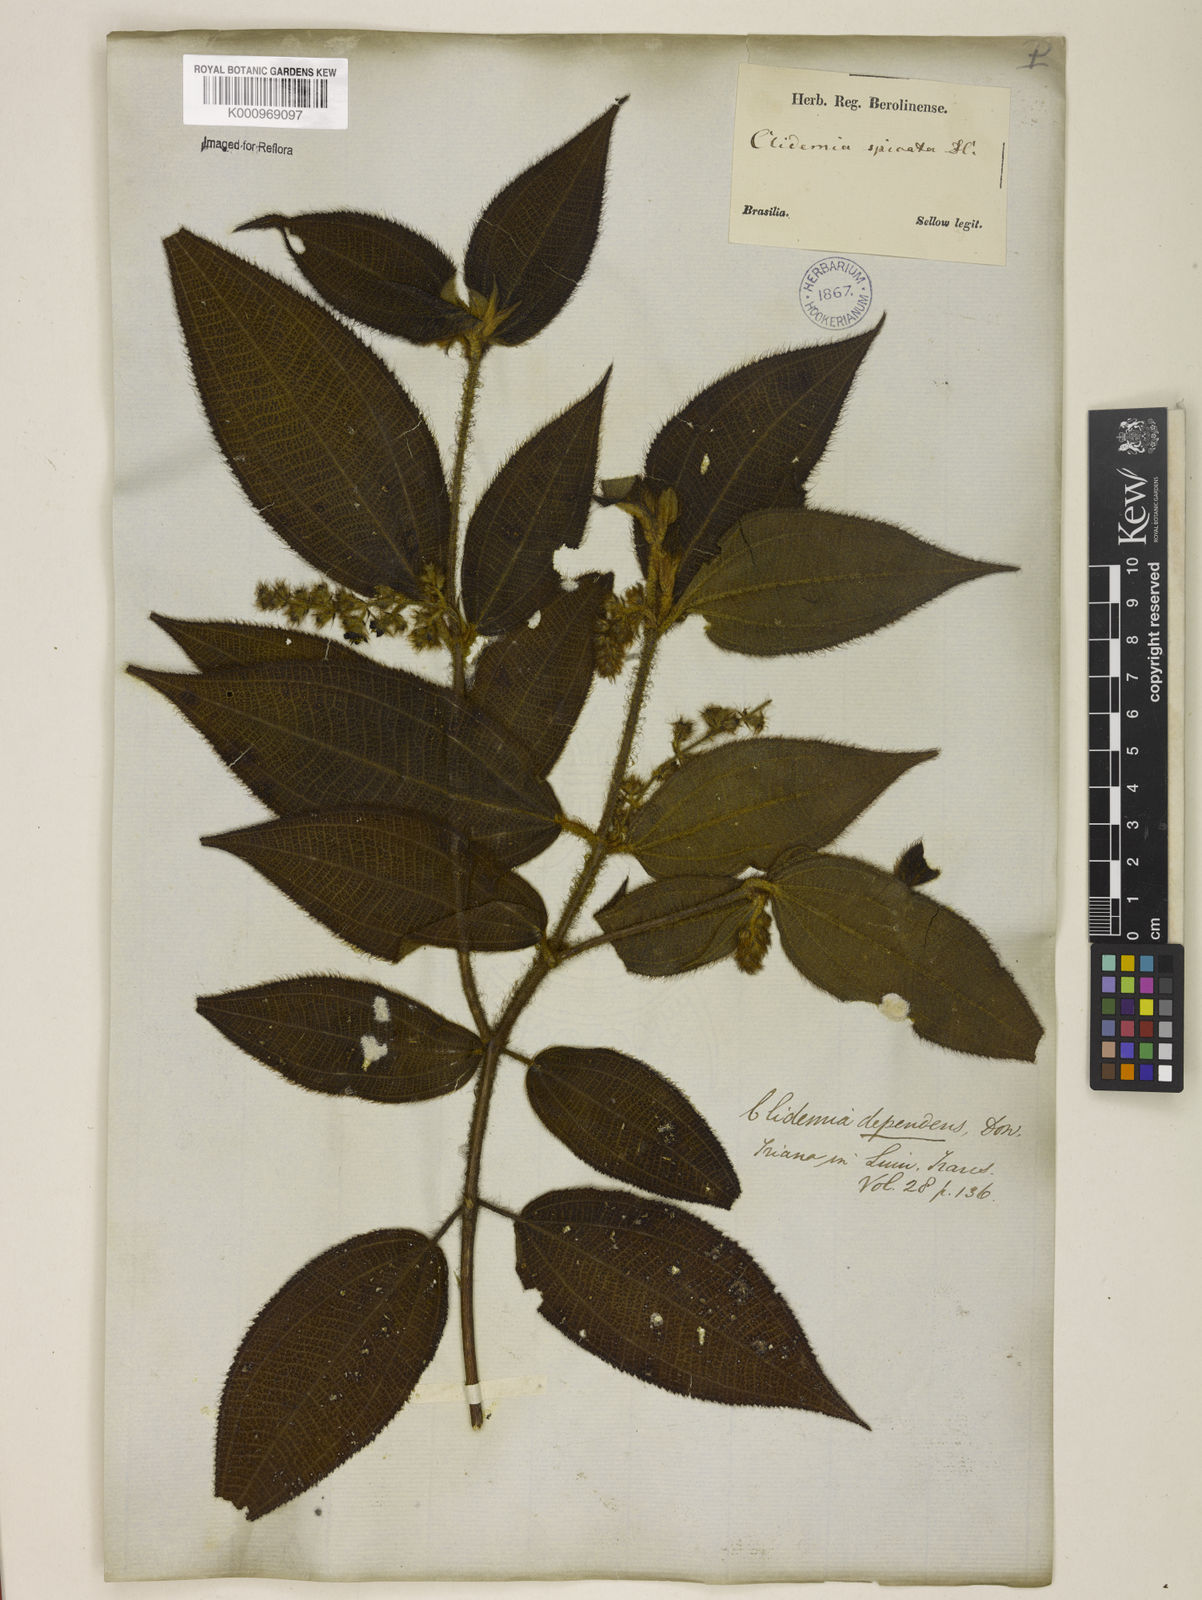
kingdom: Plantae
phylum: Tracheophyta
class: Magnoliopsida
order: Myrtales
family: Melastomataceae
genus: Miconia
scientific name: Miconia dependens
